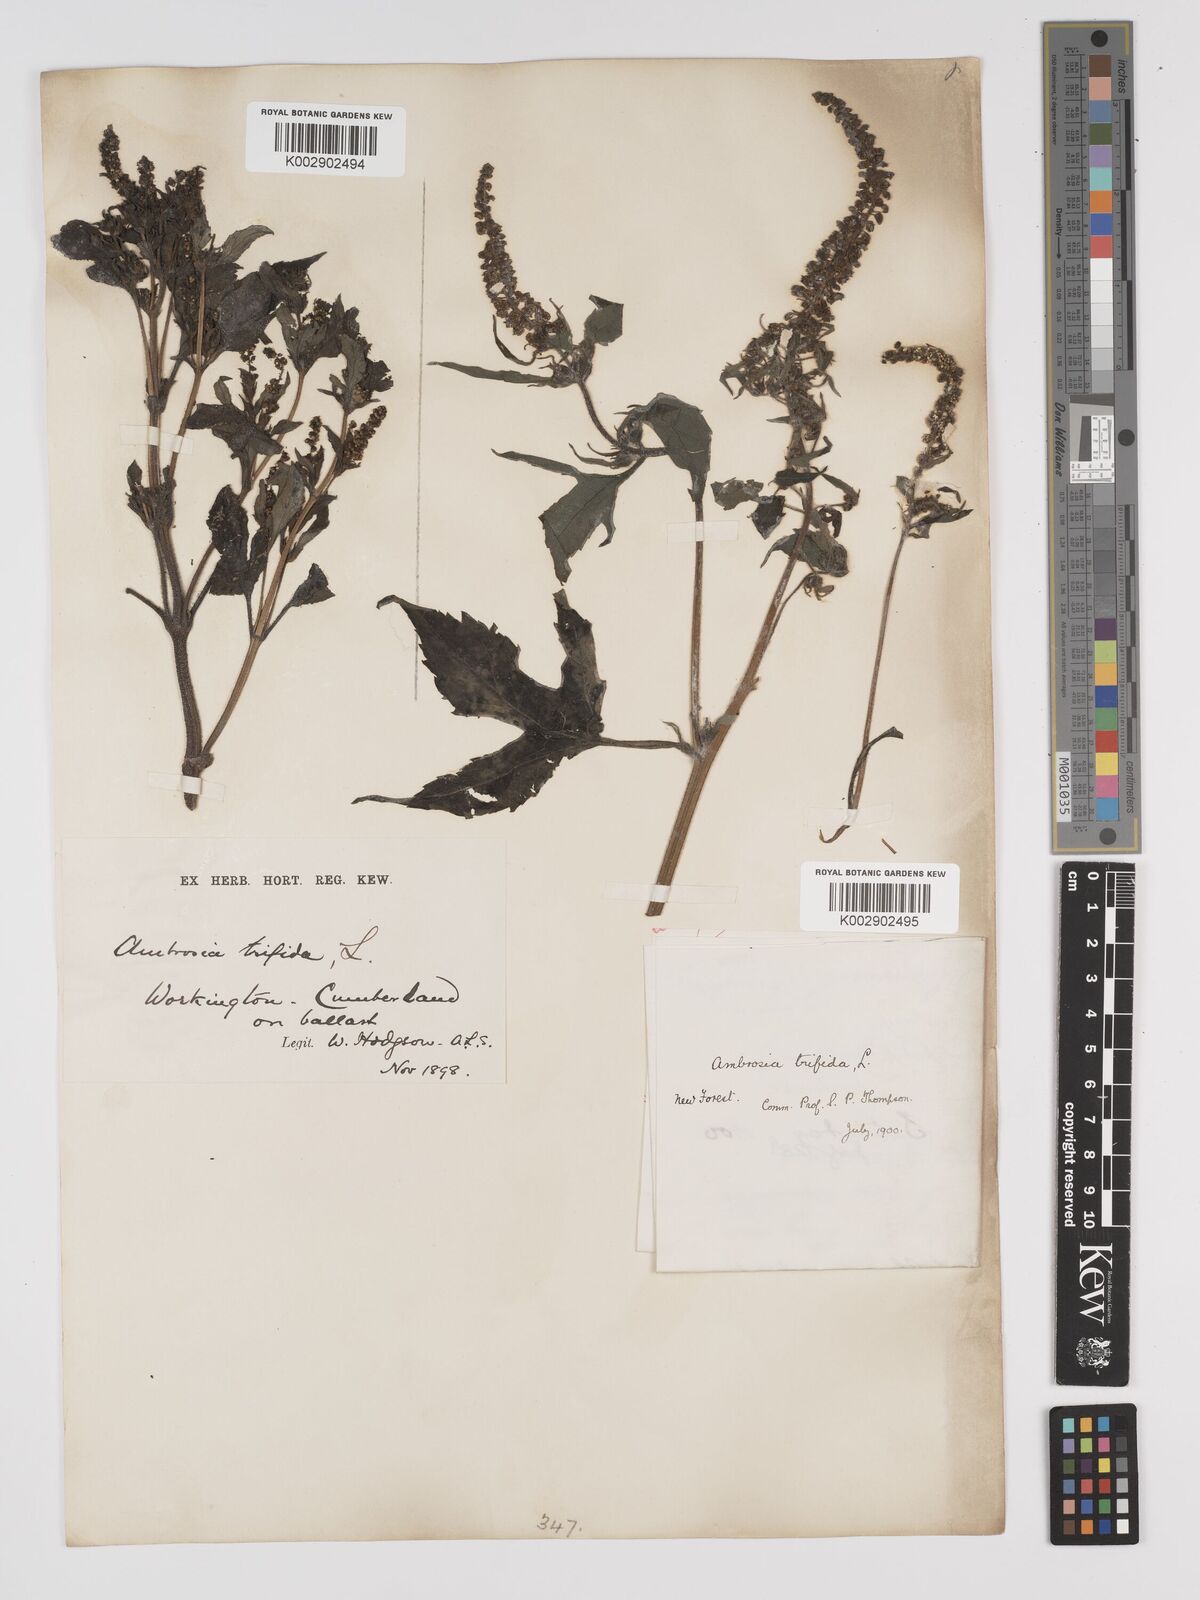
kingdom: Plantae
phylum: Tracheophyta
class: Magnoliopsida
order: Asterales
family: Asteraceae
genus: Ambrosia
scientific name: Ambrosia trifida
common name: Giant ragweed
